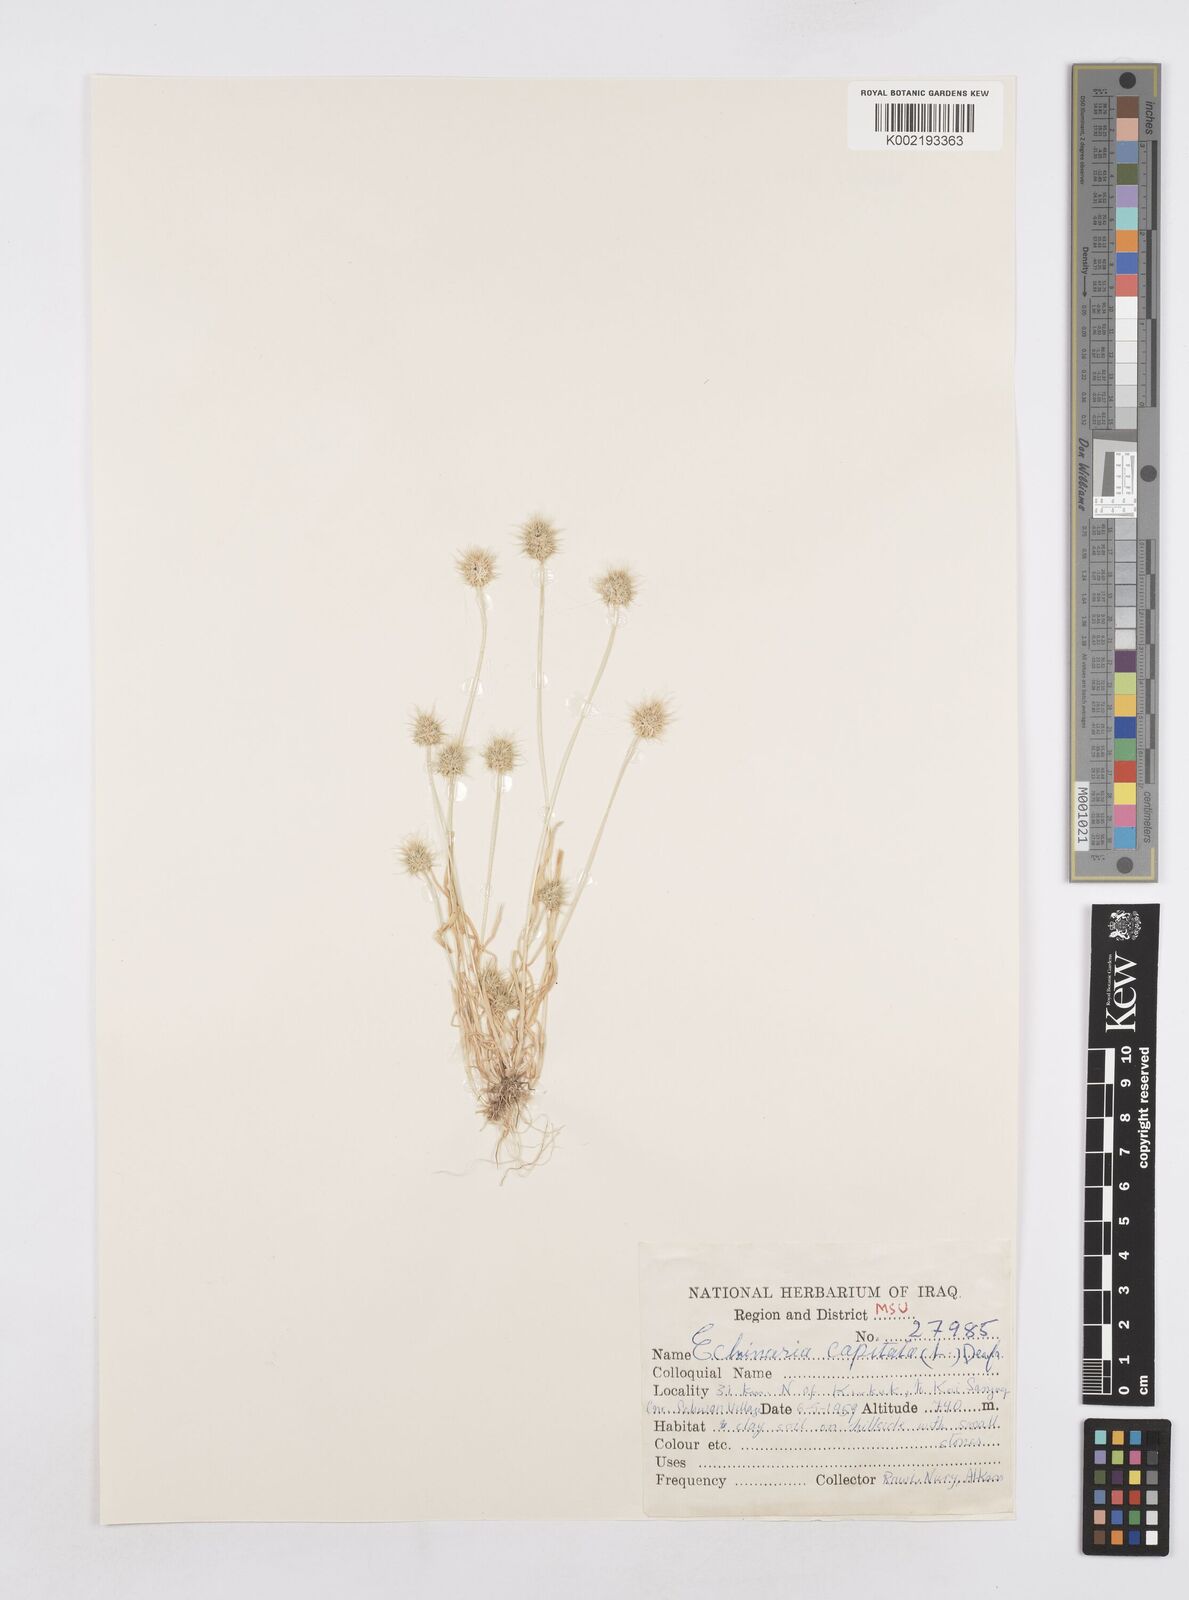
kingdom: Plantae
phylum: Tracheophyta
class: Liliopsida
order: Poales
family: Poaceae
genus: Echinaria
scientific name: Echinaria capitata
